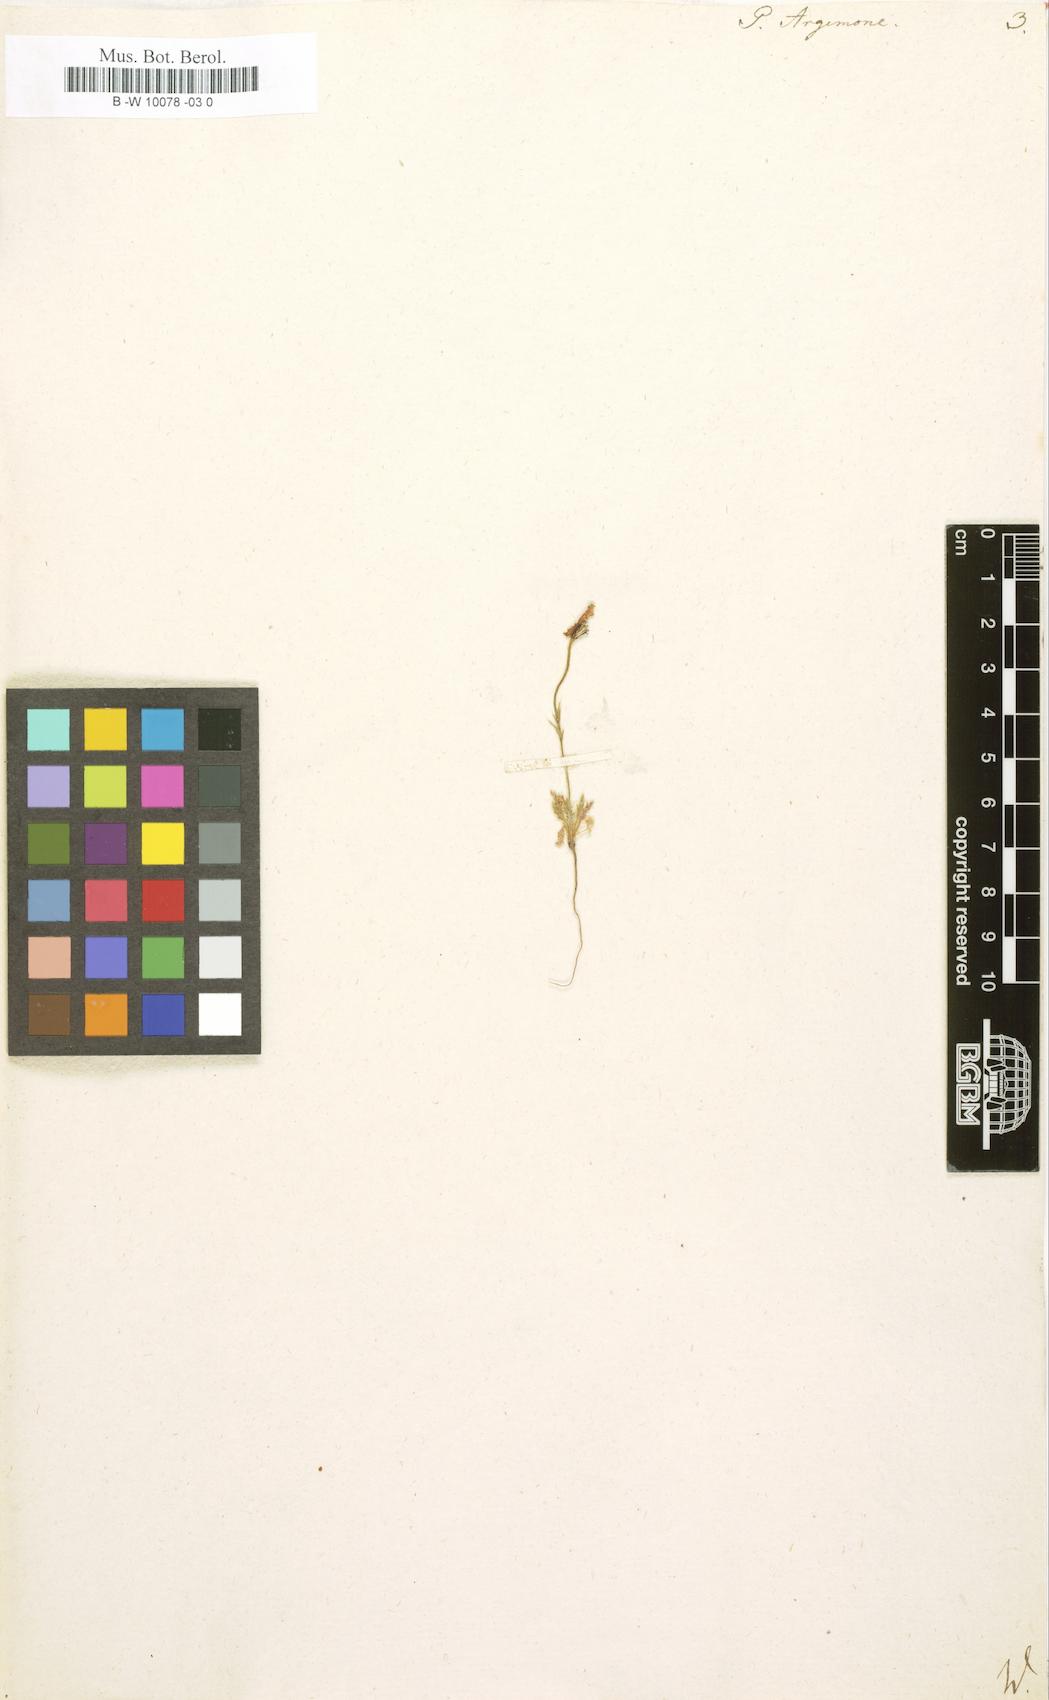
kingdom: Plantae
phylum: Tracheophyta
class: Magnoliopsida
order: Ranunculales
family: Papaveraceae
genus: Roemeria
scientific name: Roemeria argemone
